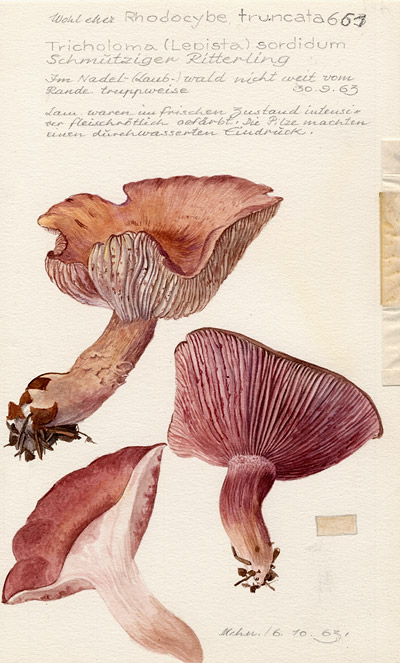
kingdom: Fungi
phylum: Basidiomycota
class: Agaricomycetes
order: Agaricales
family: Tricholomataceae
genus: Lepista
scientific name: Lepista sordida
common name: Sordid blewit
